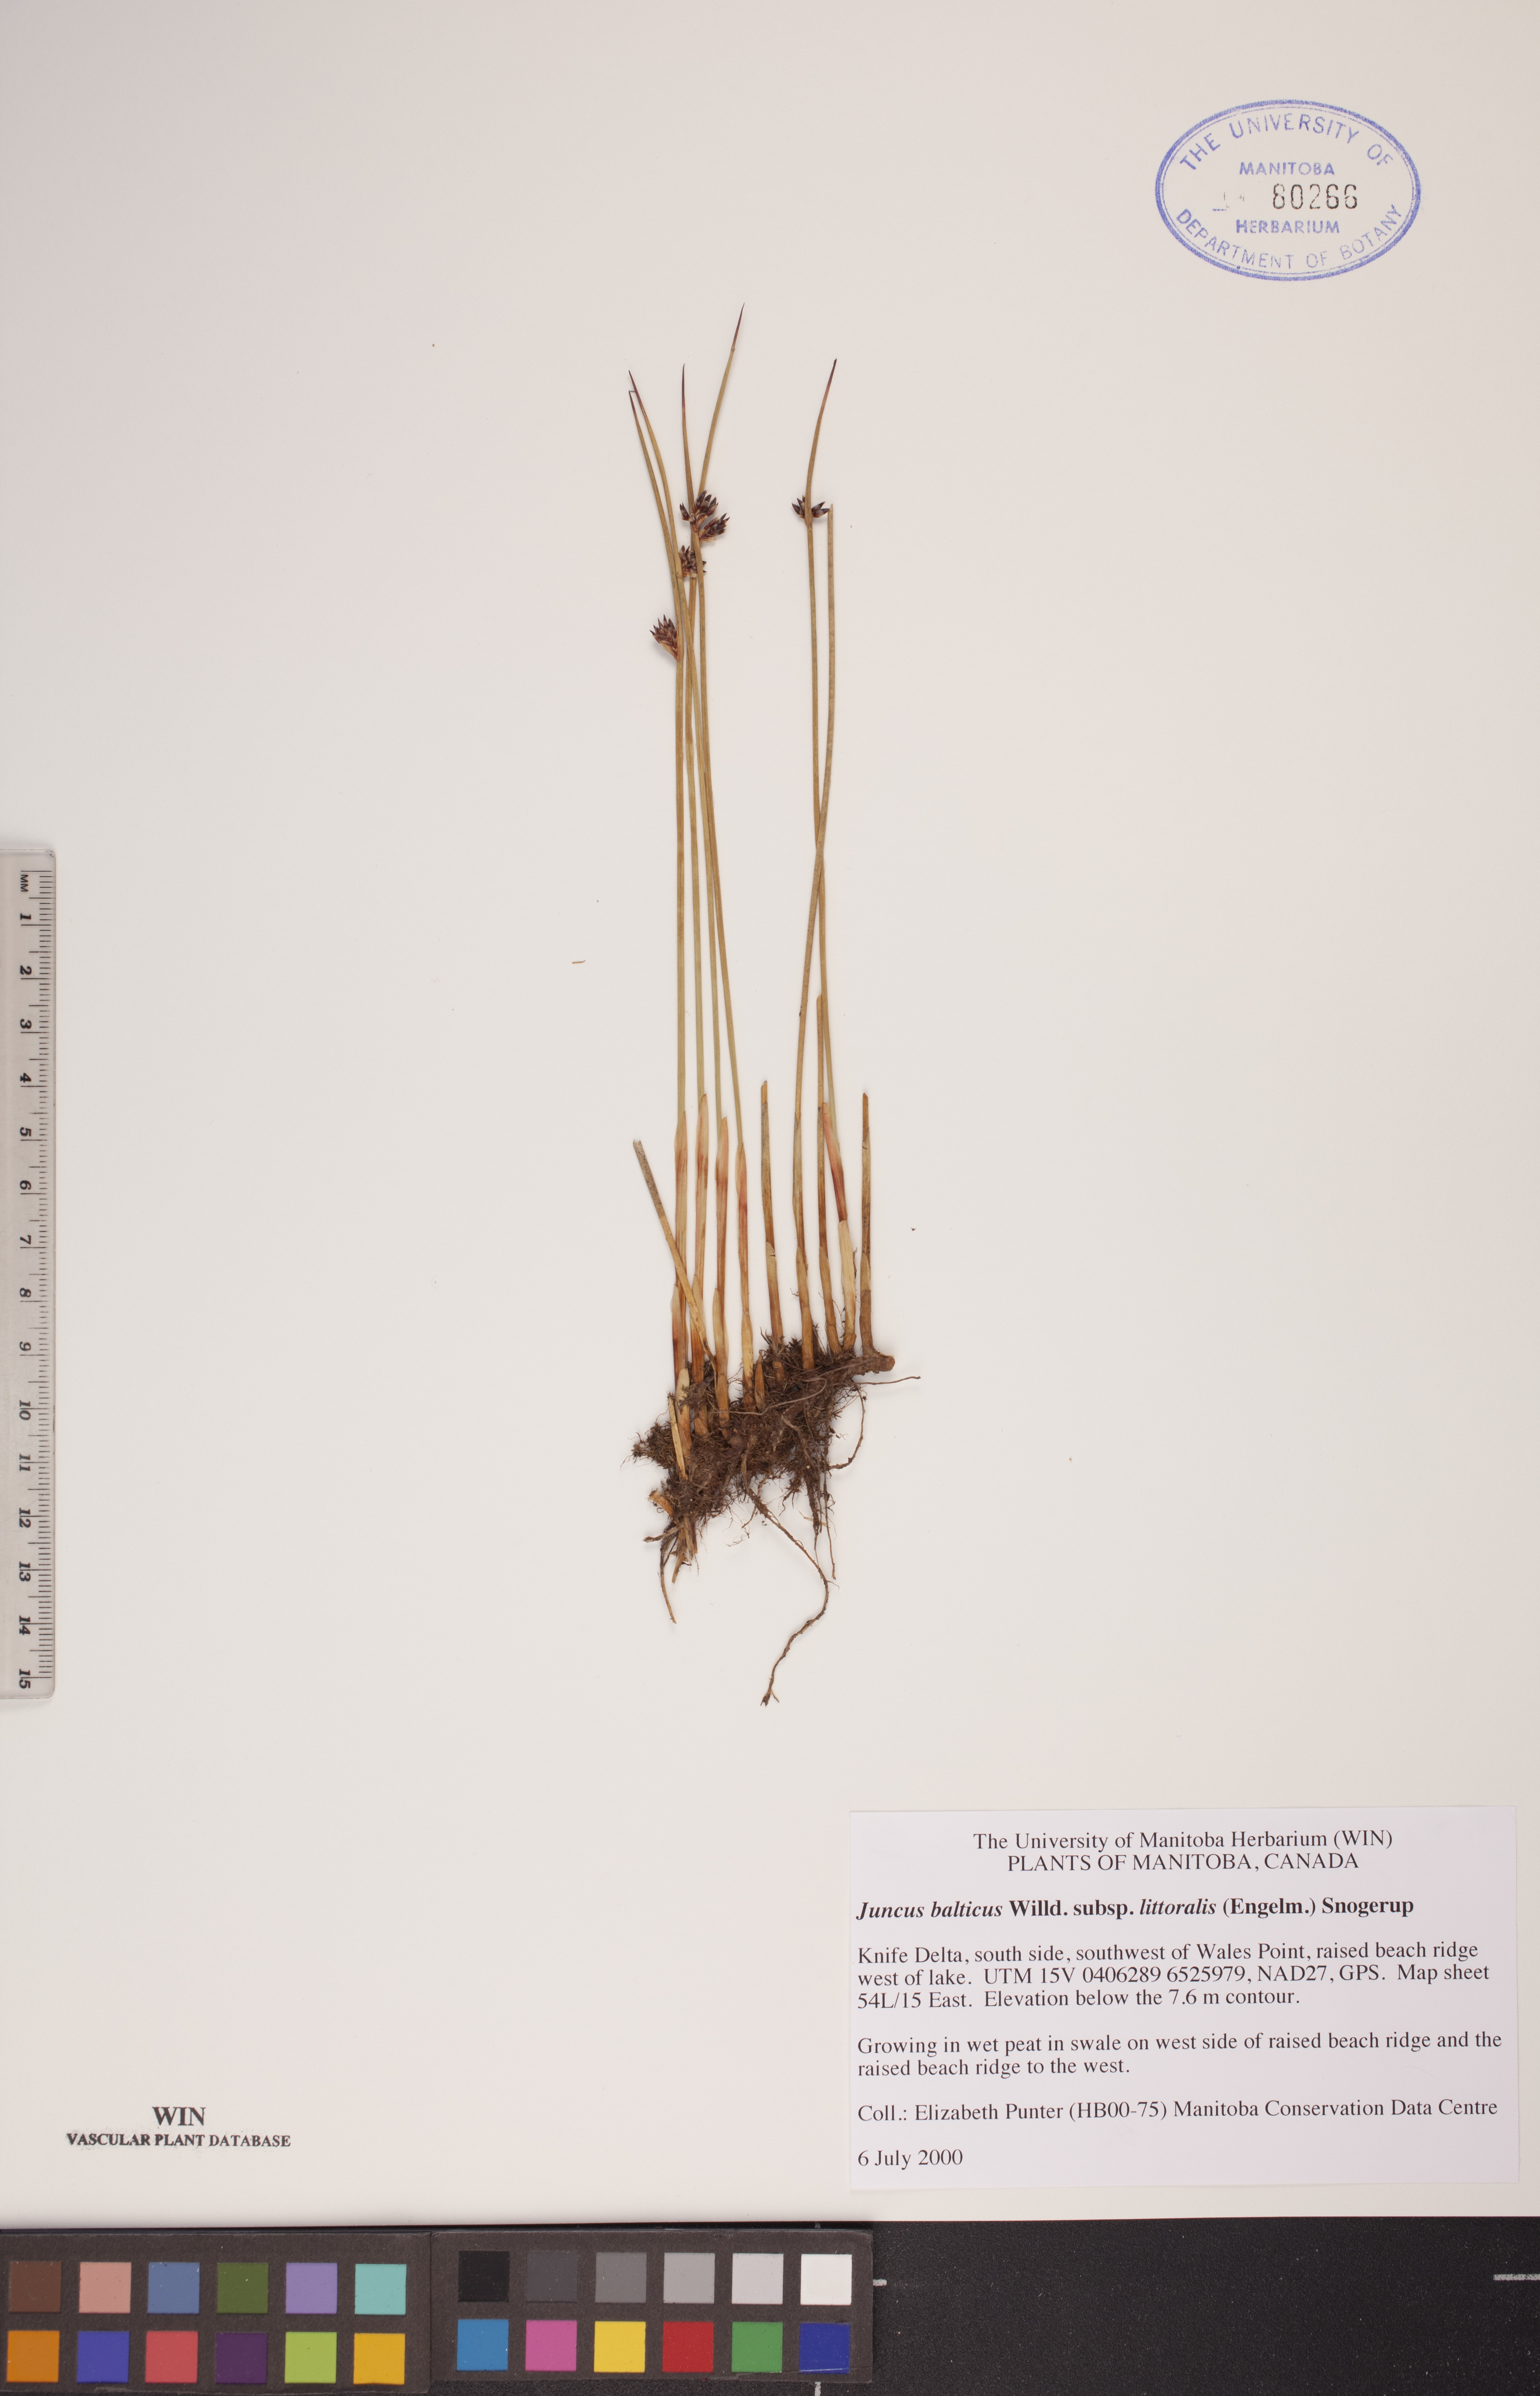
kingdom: Plantae
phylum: Tracheophyta
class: Liliopsida
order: Poales
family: Juncaceae
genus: Juncus
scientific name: Juncus balticus
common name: Baltic rush
